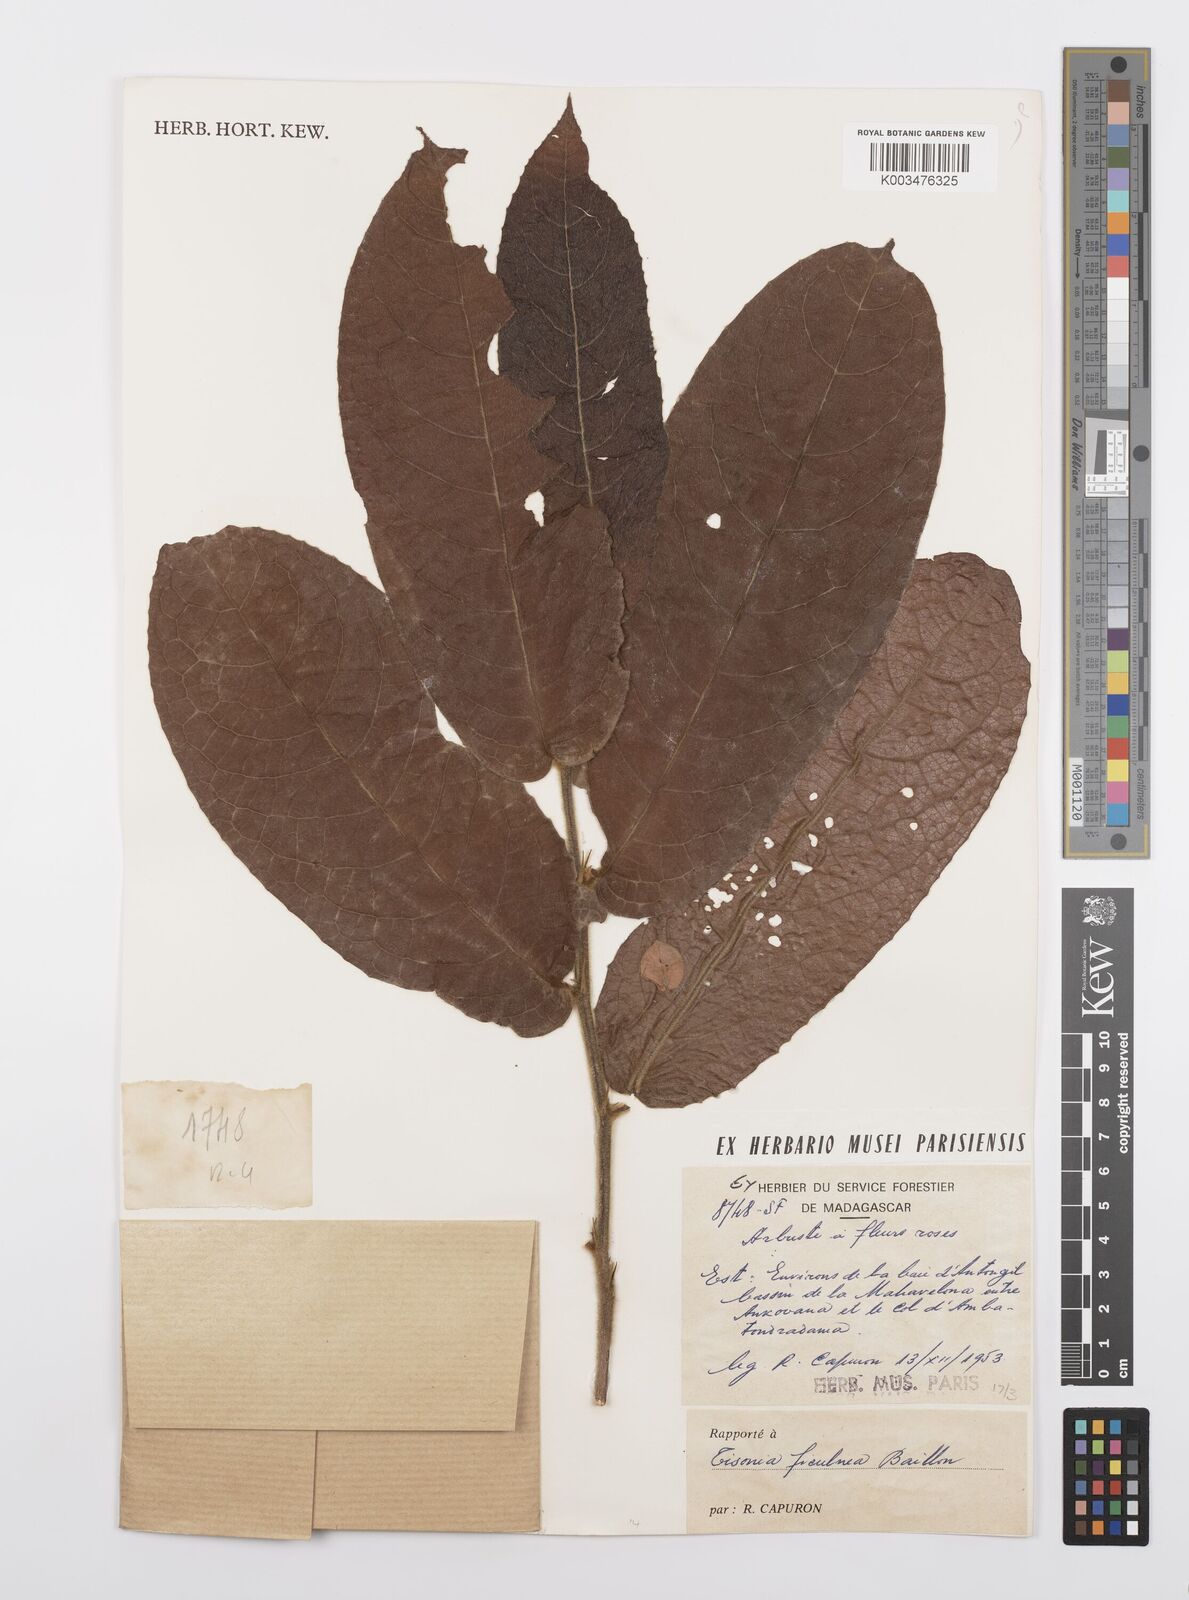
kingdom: Plantae
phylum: Tracheophyta
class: Magnoliopsida
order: Malpighiales
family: Salicaceae
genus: Tisonia
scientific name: Tisonia ficulnea
